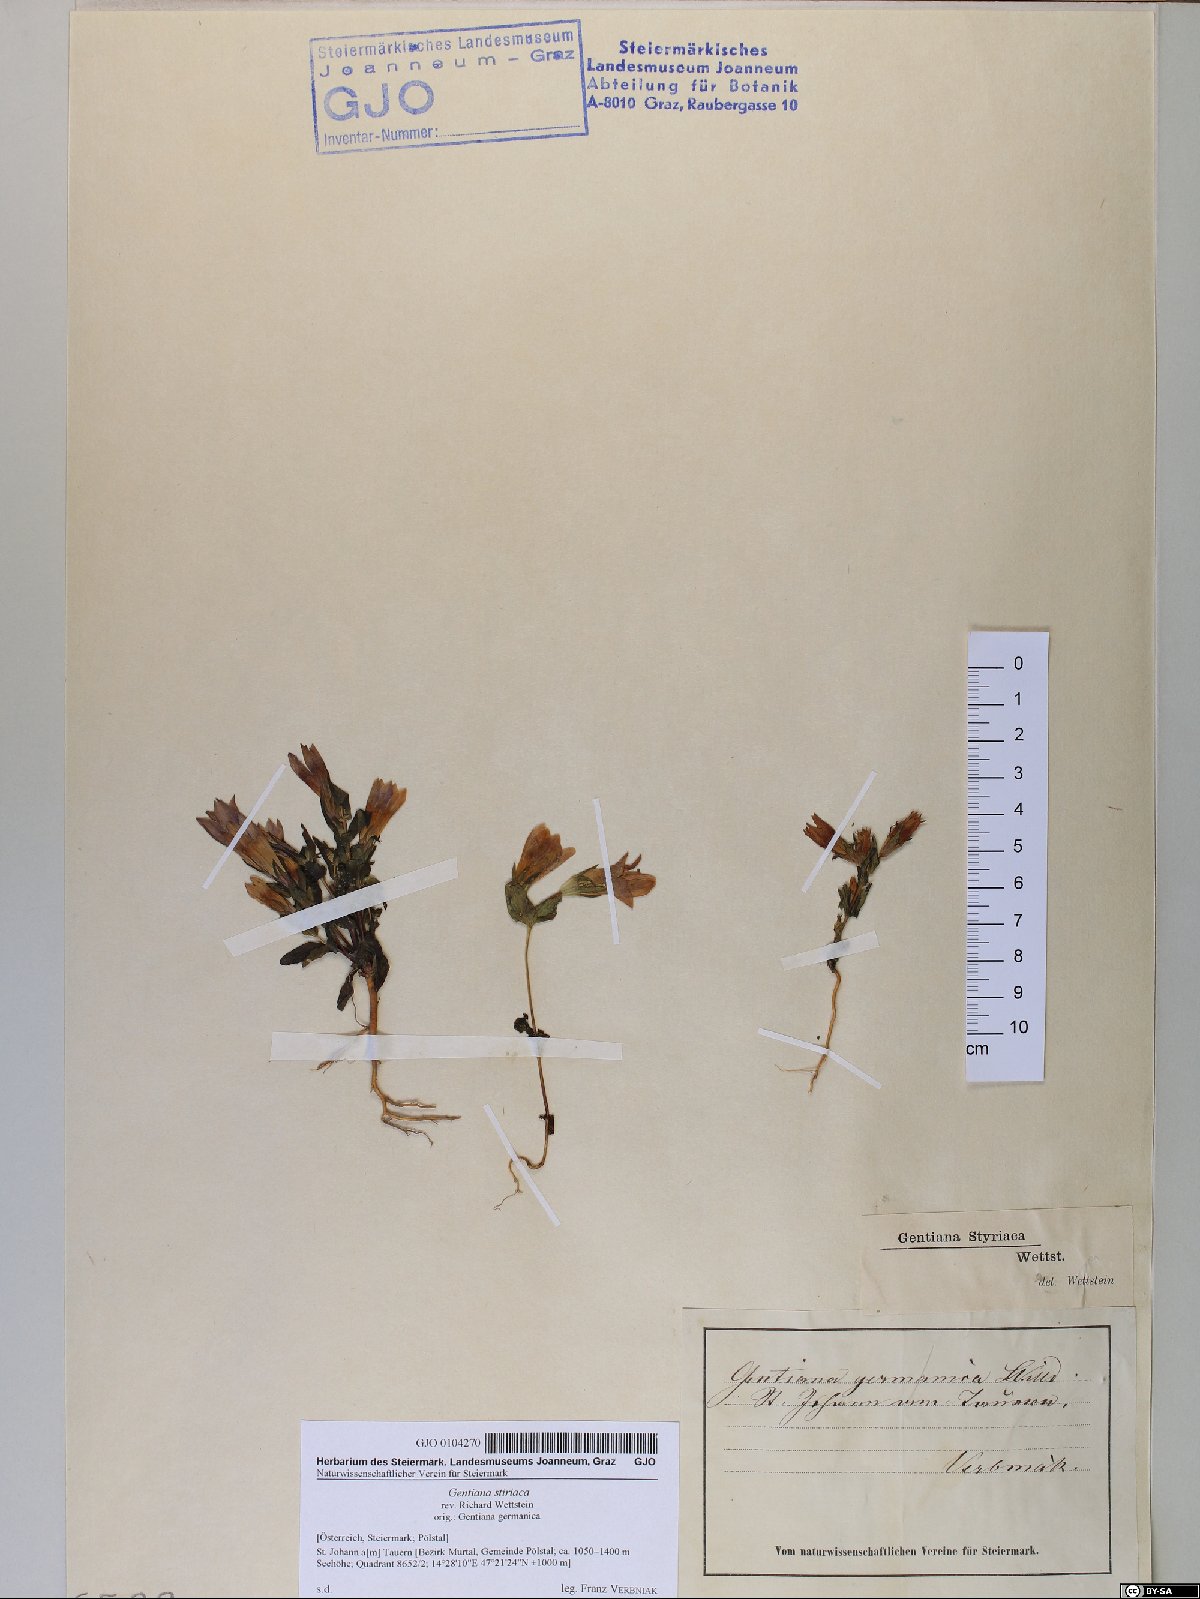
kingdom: Plantae
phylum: Tracheophyta
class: Magnoliopsida
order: Gentianales
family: Gentianaceae
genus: Gentianella
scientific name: Gentianella rhaetica
